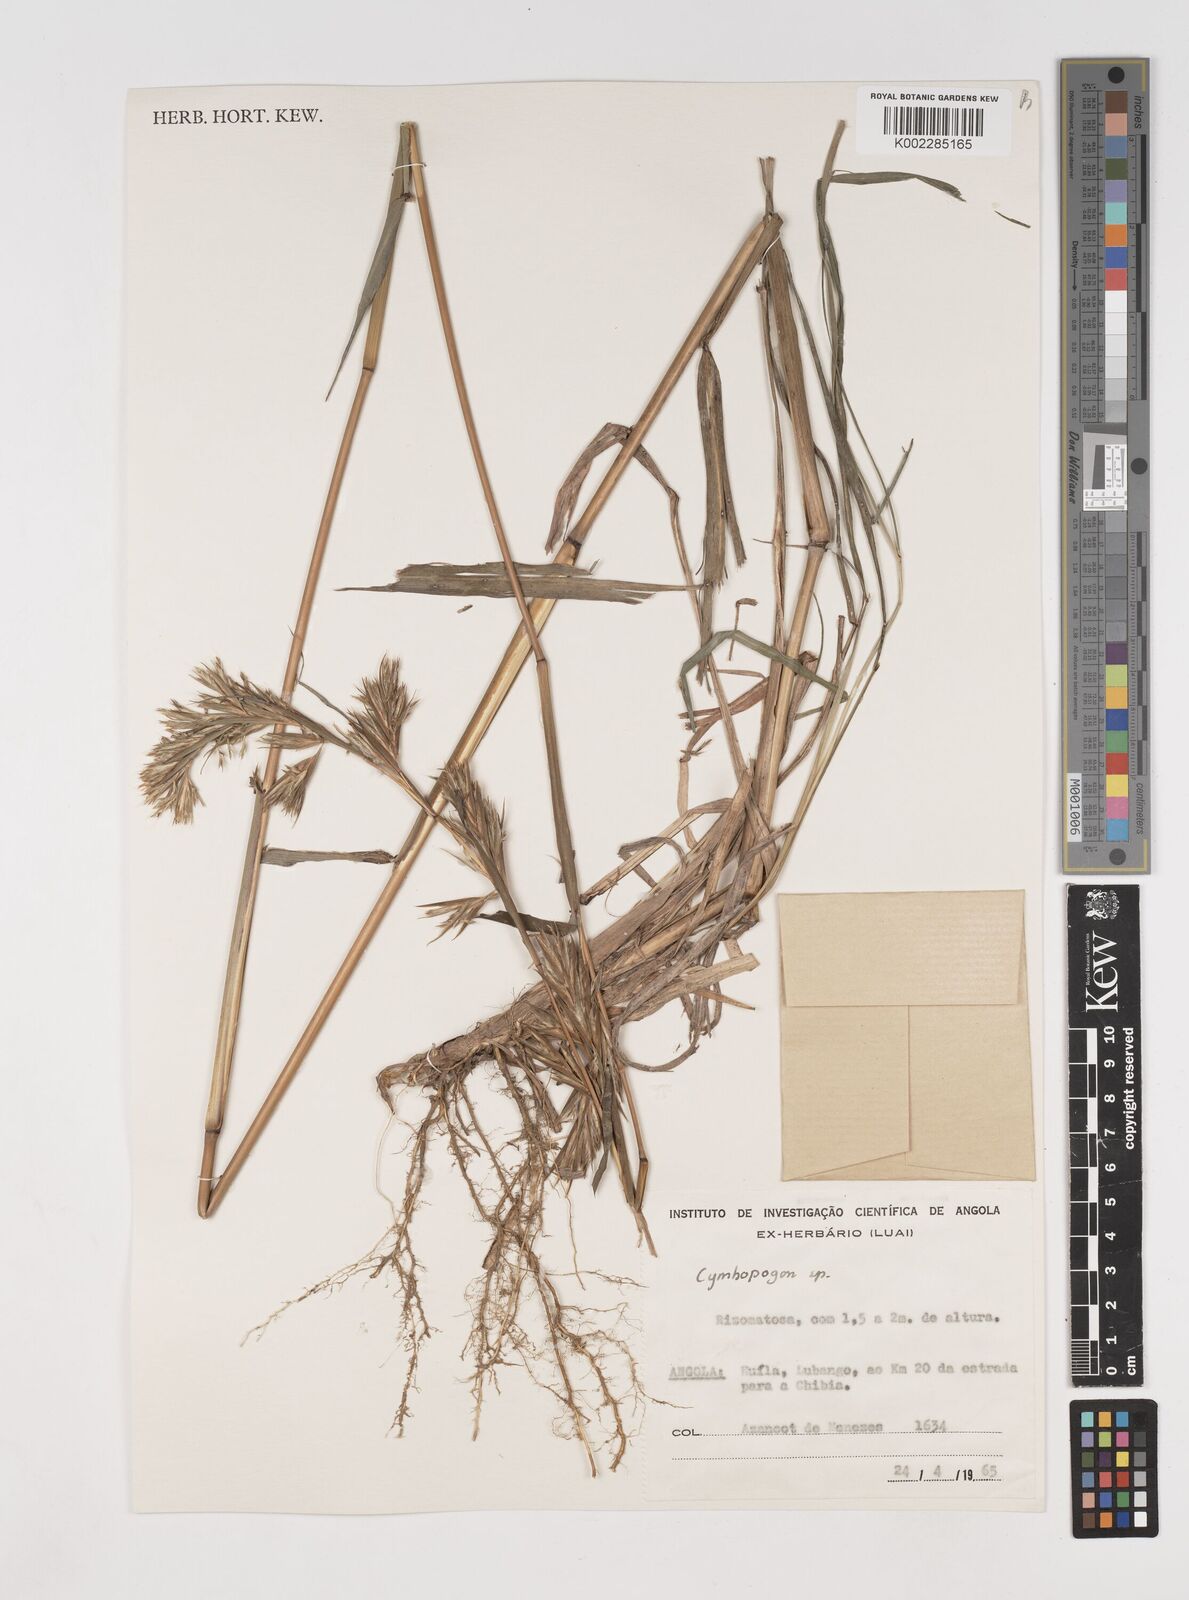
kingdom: Plantae
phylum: Tracheophyta
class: Liliopsida
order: Poales
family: Poaceae
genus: Cymbopogon
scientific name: Cymbopogon densiflorus
